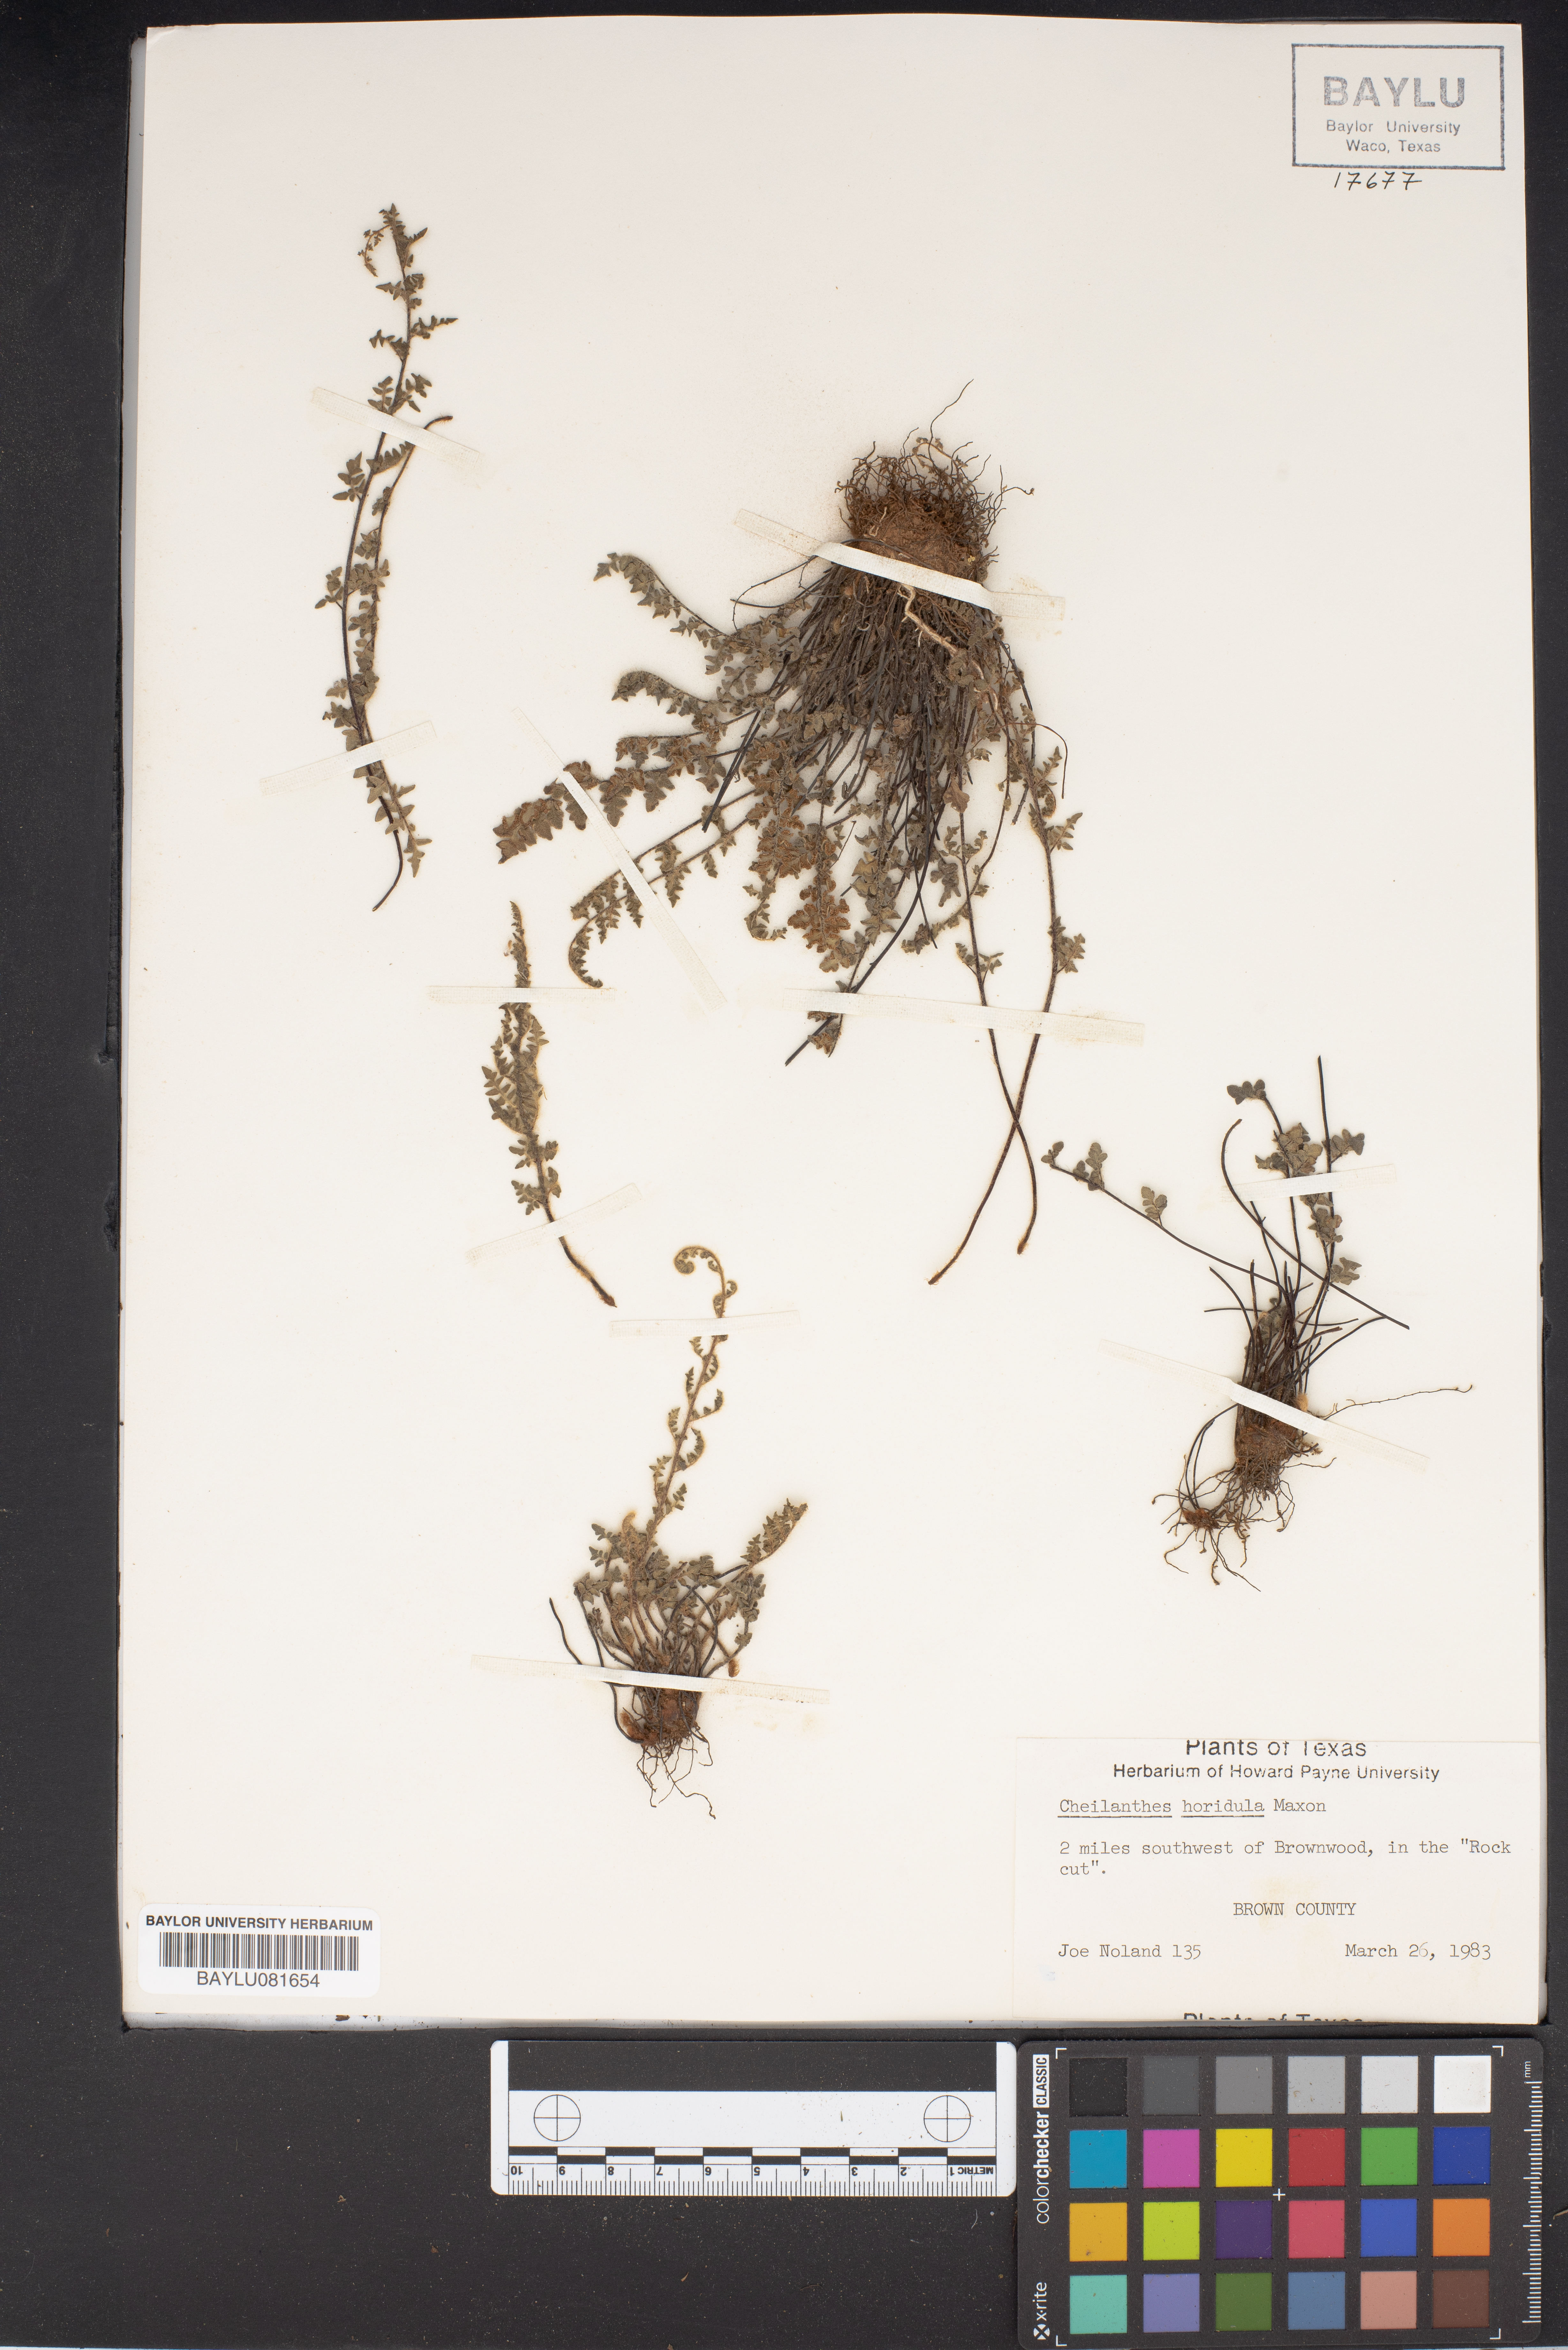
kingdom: Plantae
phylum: Tracheophyta
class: Polypodiopsida
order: Polypodiales
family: Pteridaceae
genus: Myriopteris
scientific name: Myriopteris scabra
